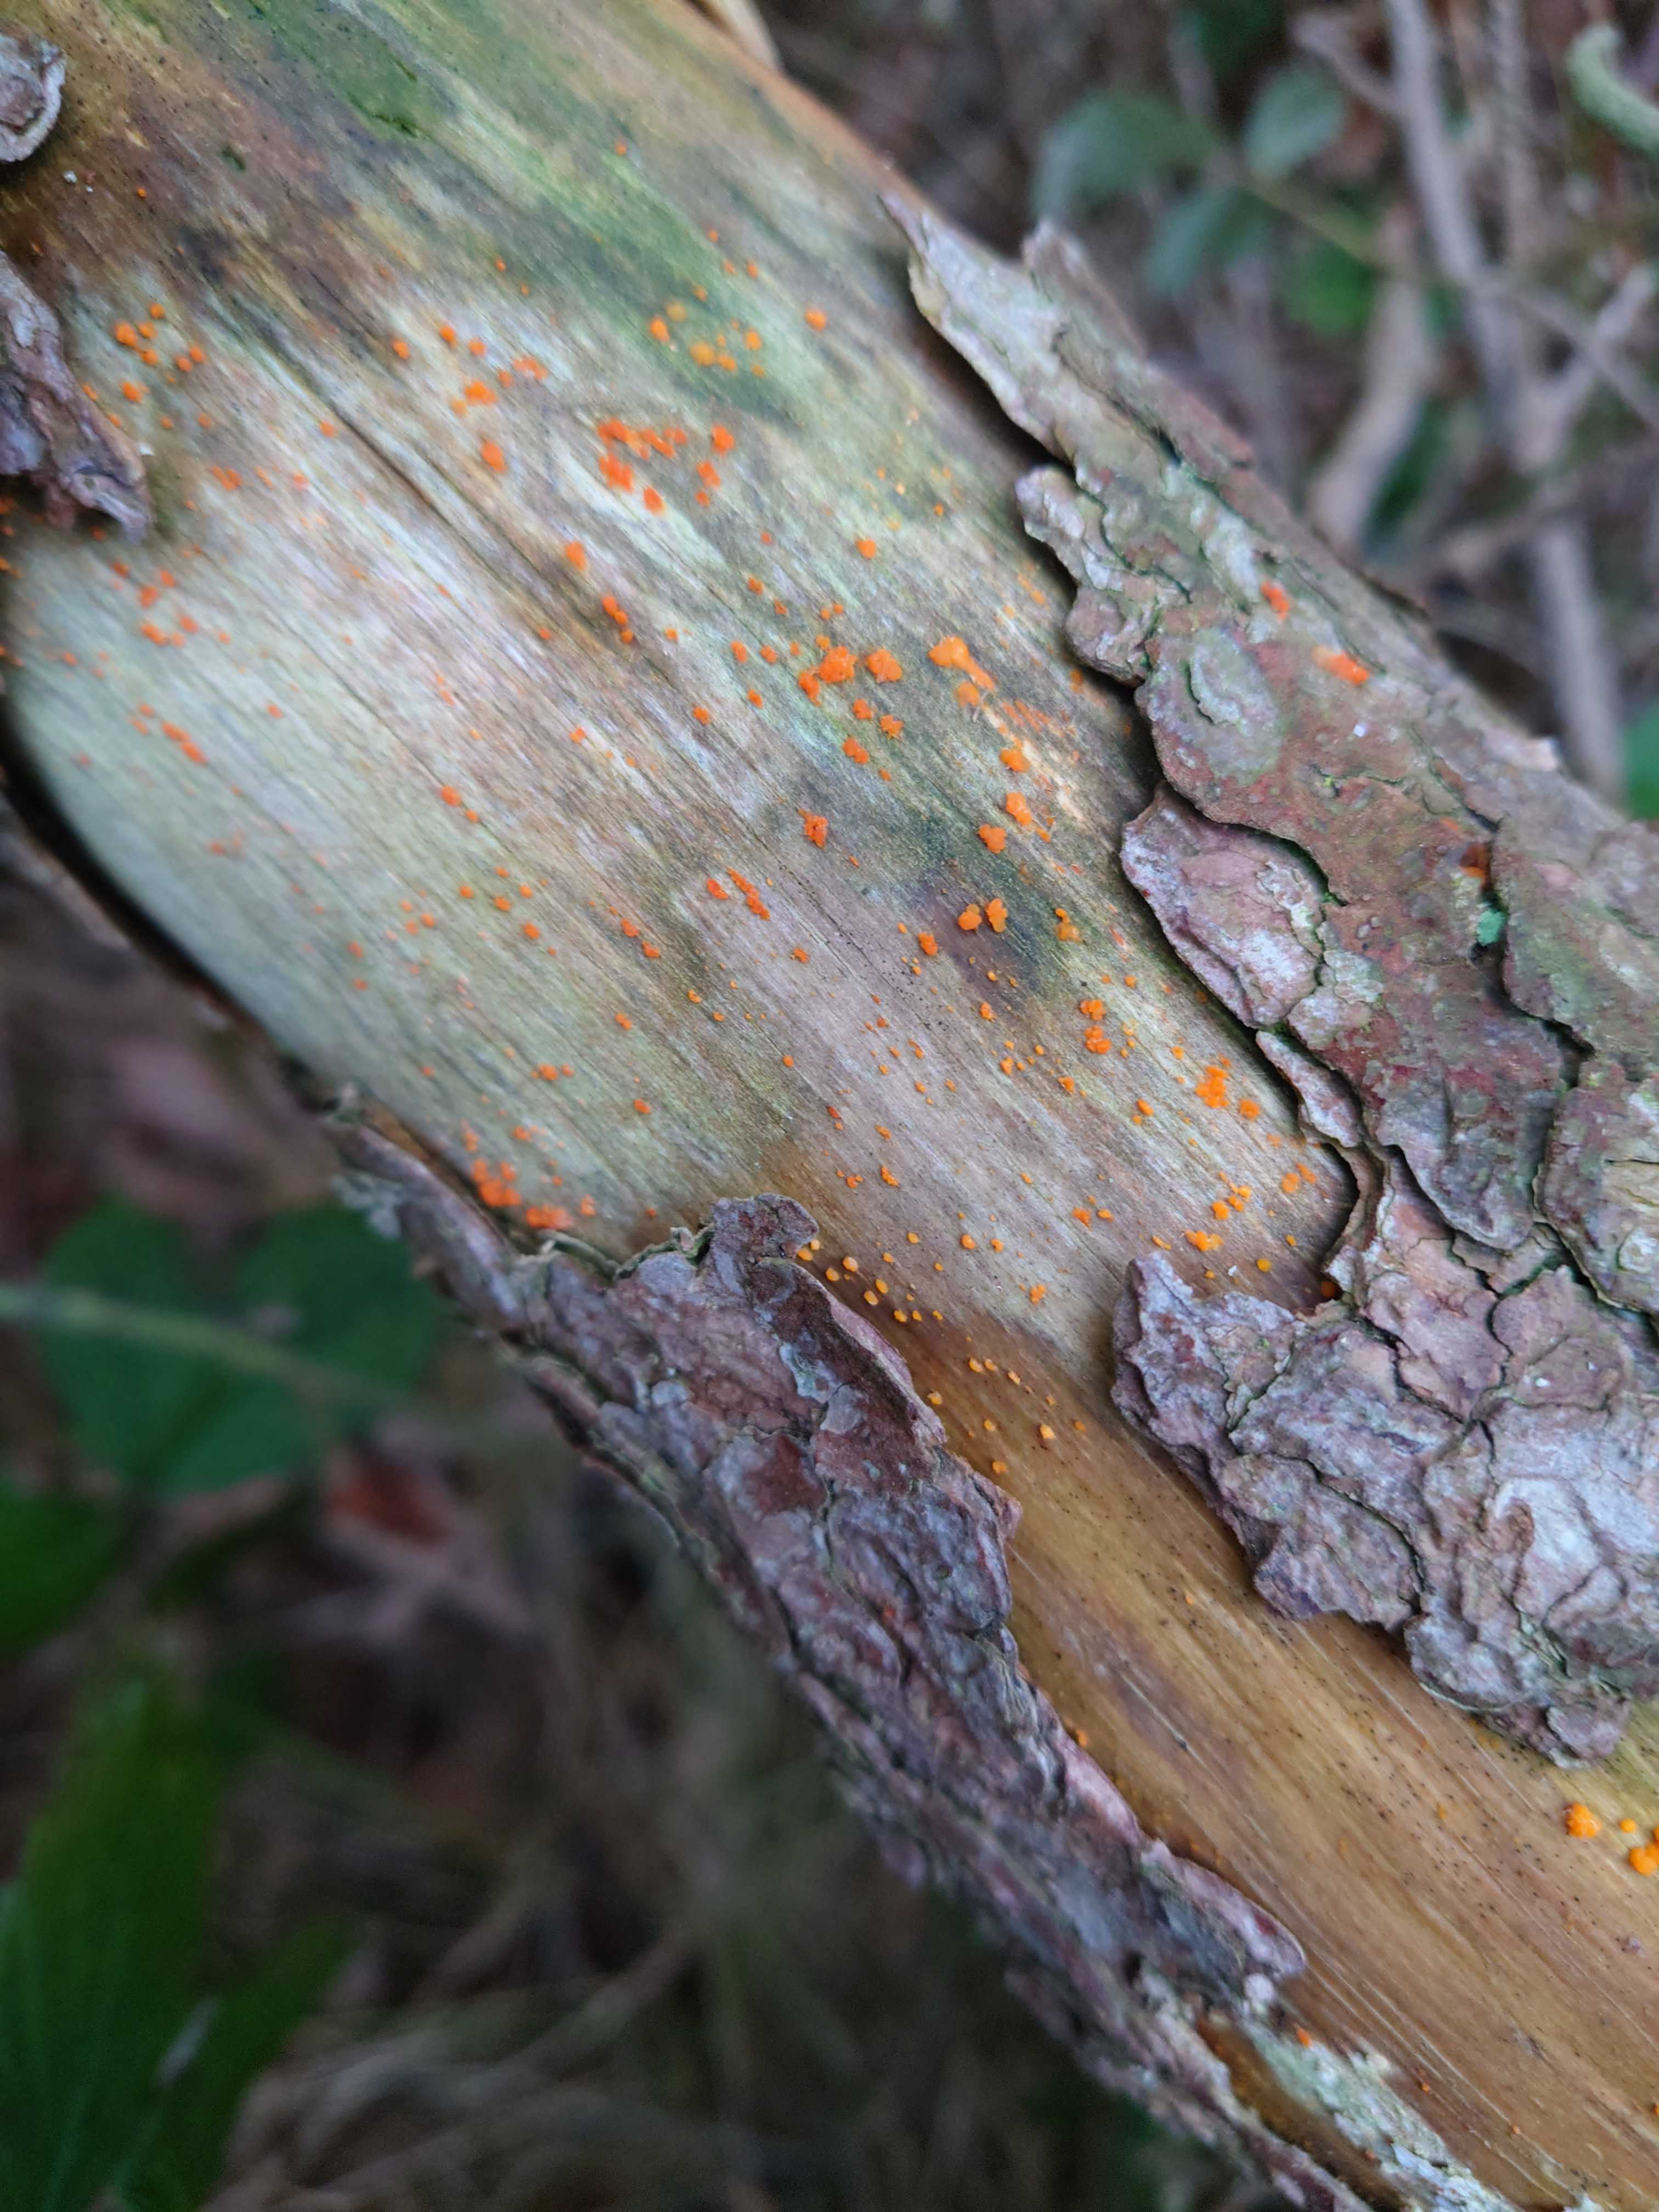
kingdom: Fungi
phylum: Basidiomycota
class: Dacrymycetes
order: Dacrymycetales
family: Dacrymycetaceae
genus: Dacrymyces
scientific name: Dacrymyces stillatus
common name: almindelig tåresvamp
